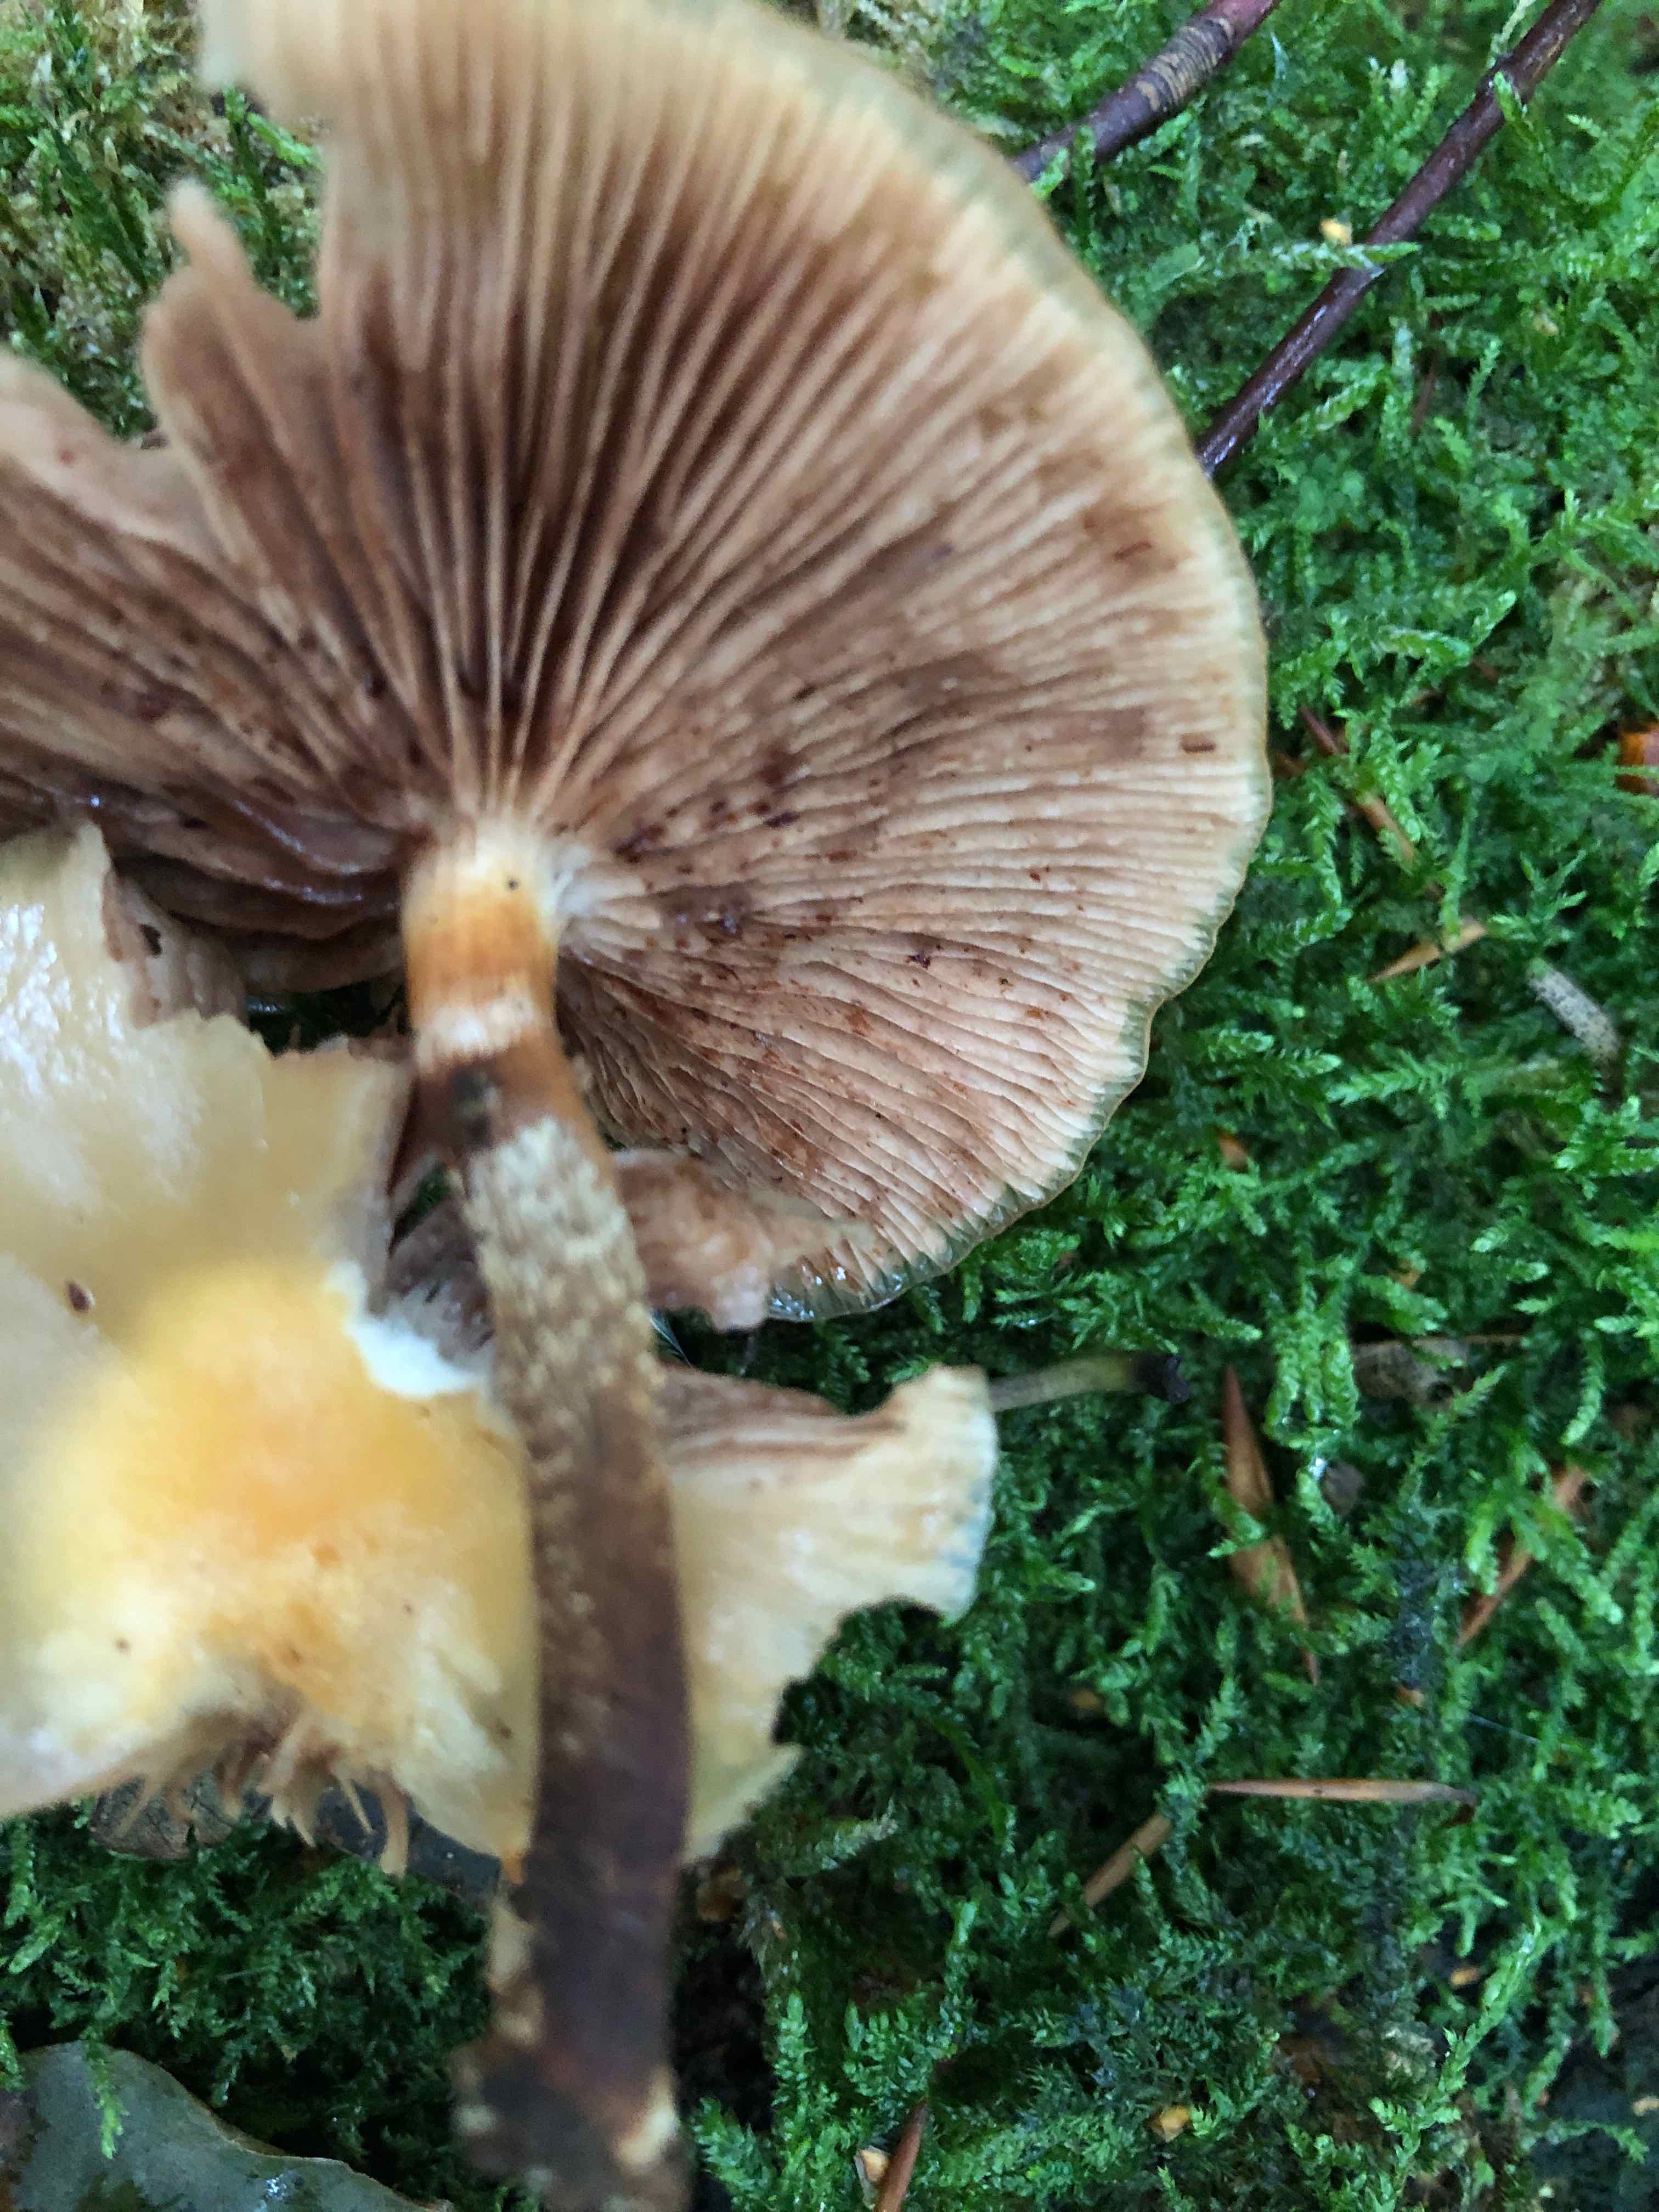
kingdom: Fungi
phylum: Basidiomycota
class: Agaricomycetes
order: Agaricales
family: Strophariaceae
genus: Kuehneromyces
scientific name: Kuehneromyces mutabilis
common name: foranderlig skælhat
